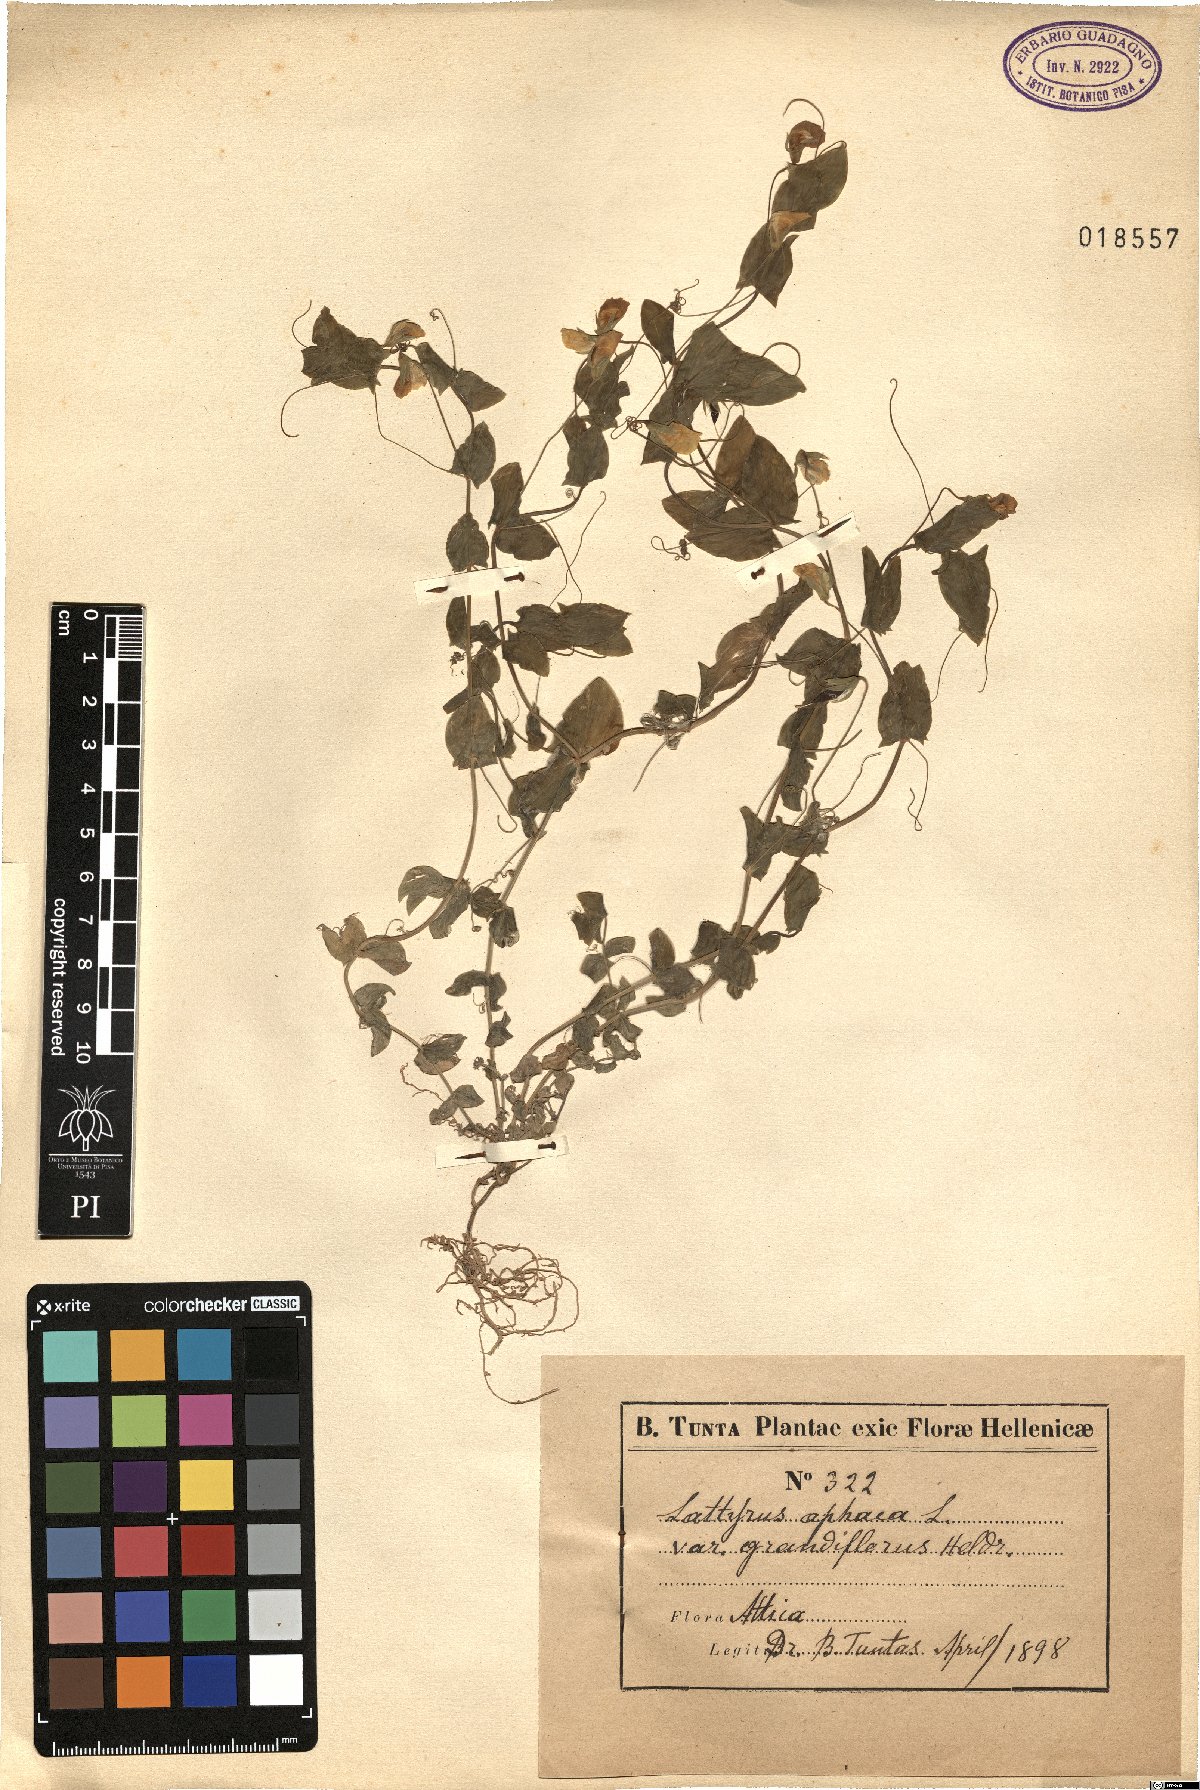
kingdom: Plantae
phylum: Tracheophyta
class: Magnoliopsida
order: Fabales
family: Fabaceae
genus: Lathyrus
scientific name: Lathyrus aphaca
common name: Yellow vetchling
